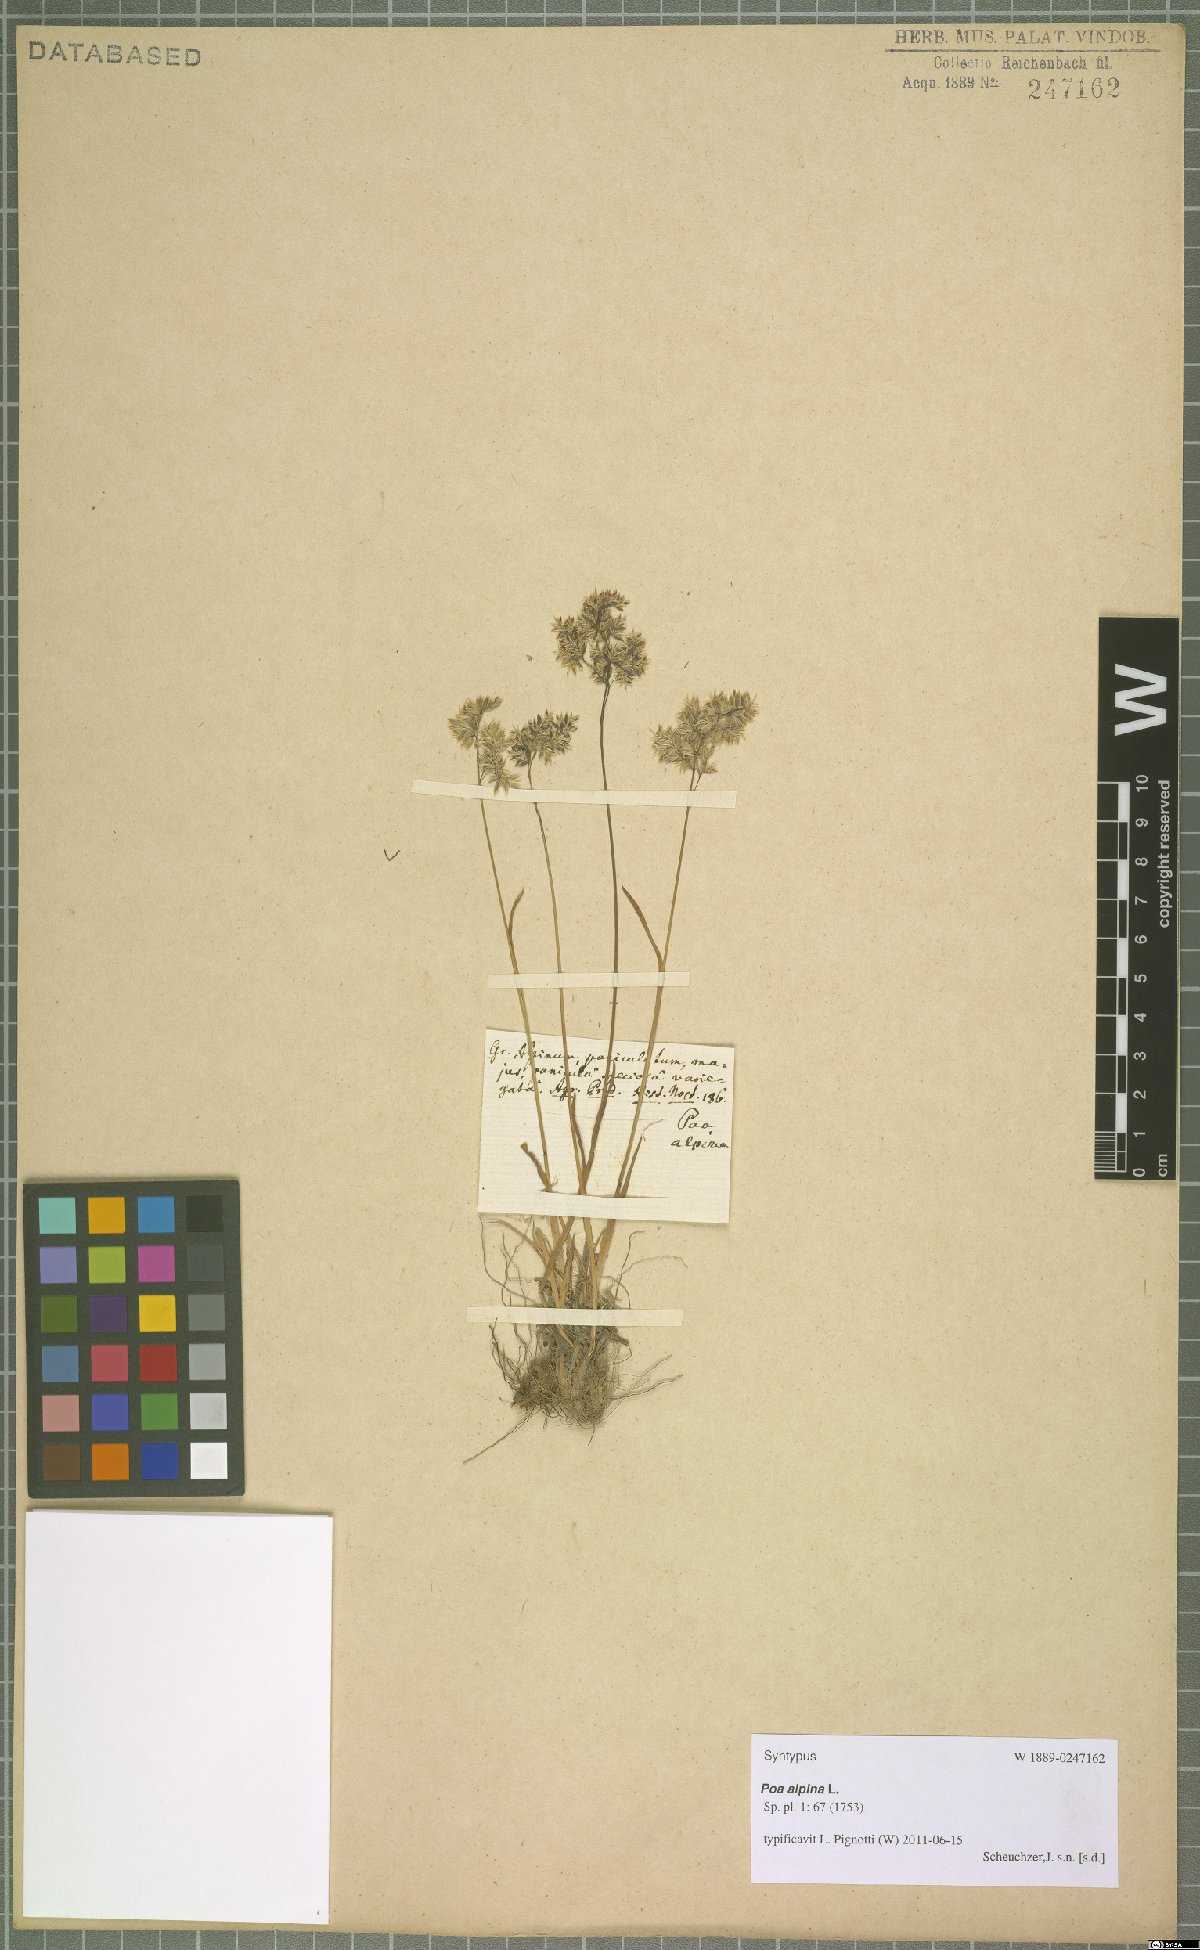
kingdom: Plantae
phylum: Tracheophyta
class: Liliopsida
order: Poales
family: Poaceae
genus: Poa
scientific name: Poa alpina
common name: Alpine bluegrass
